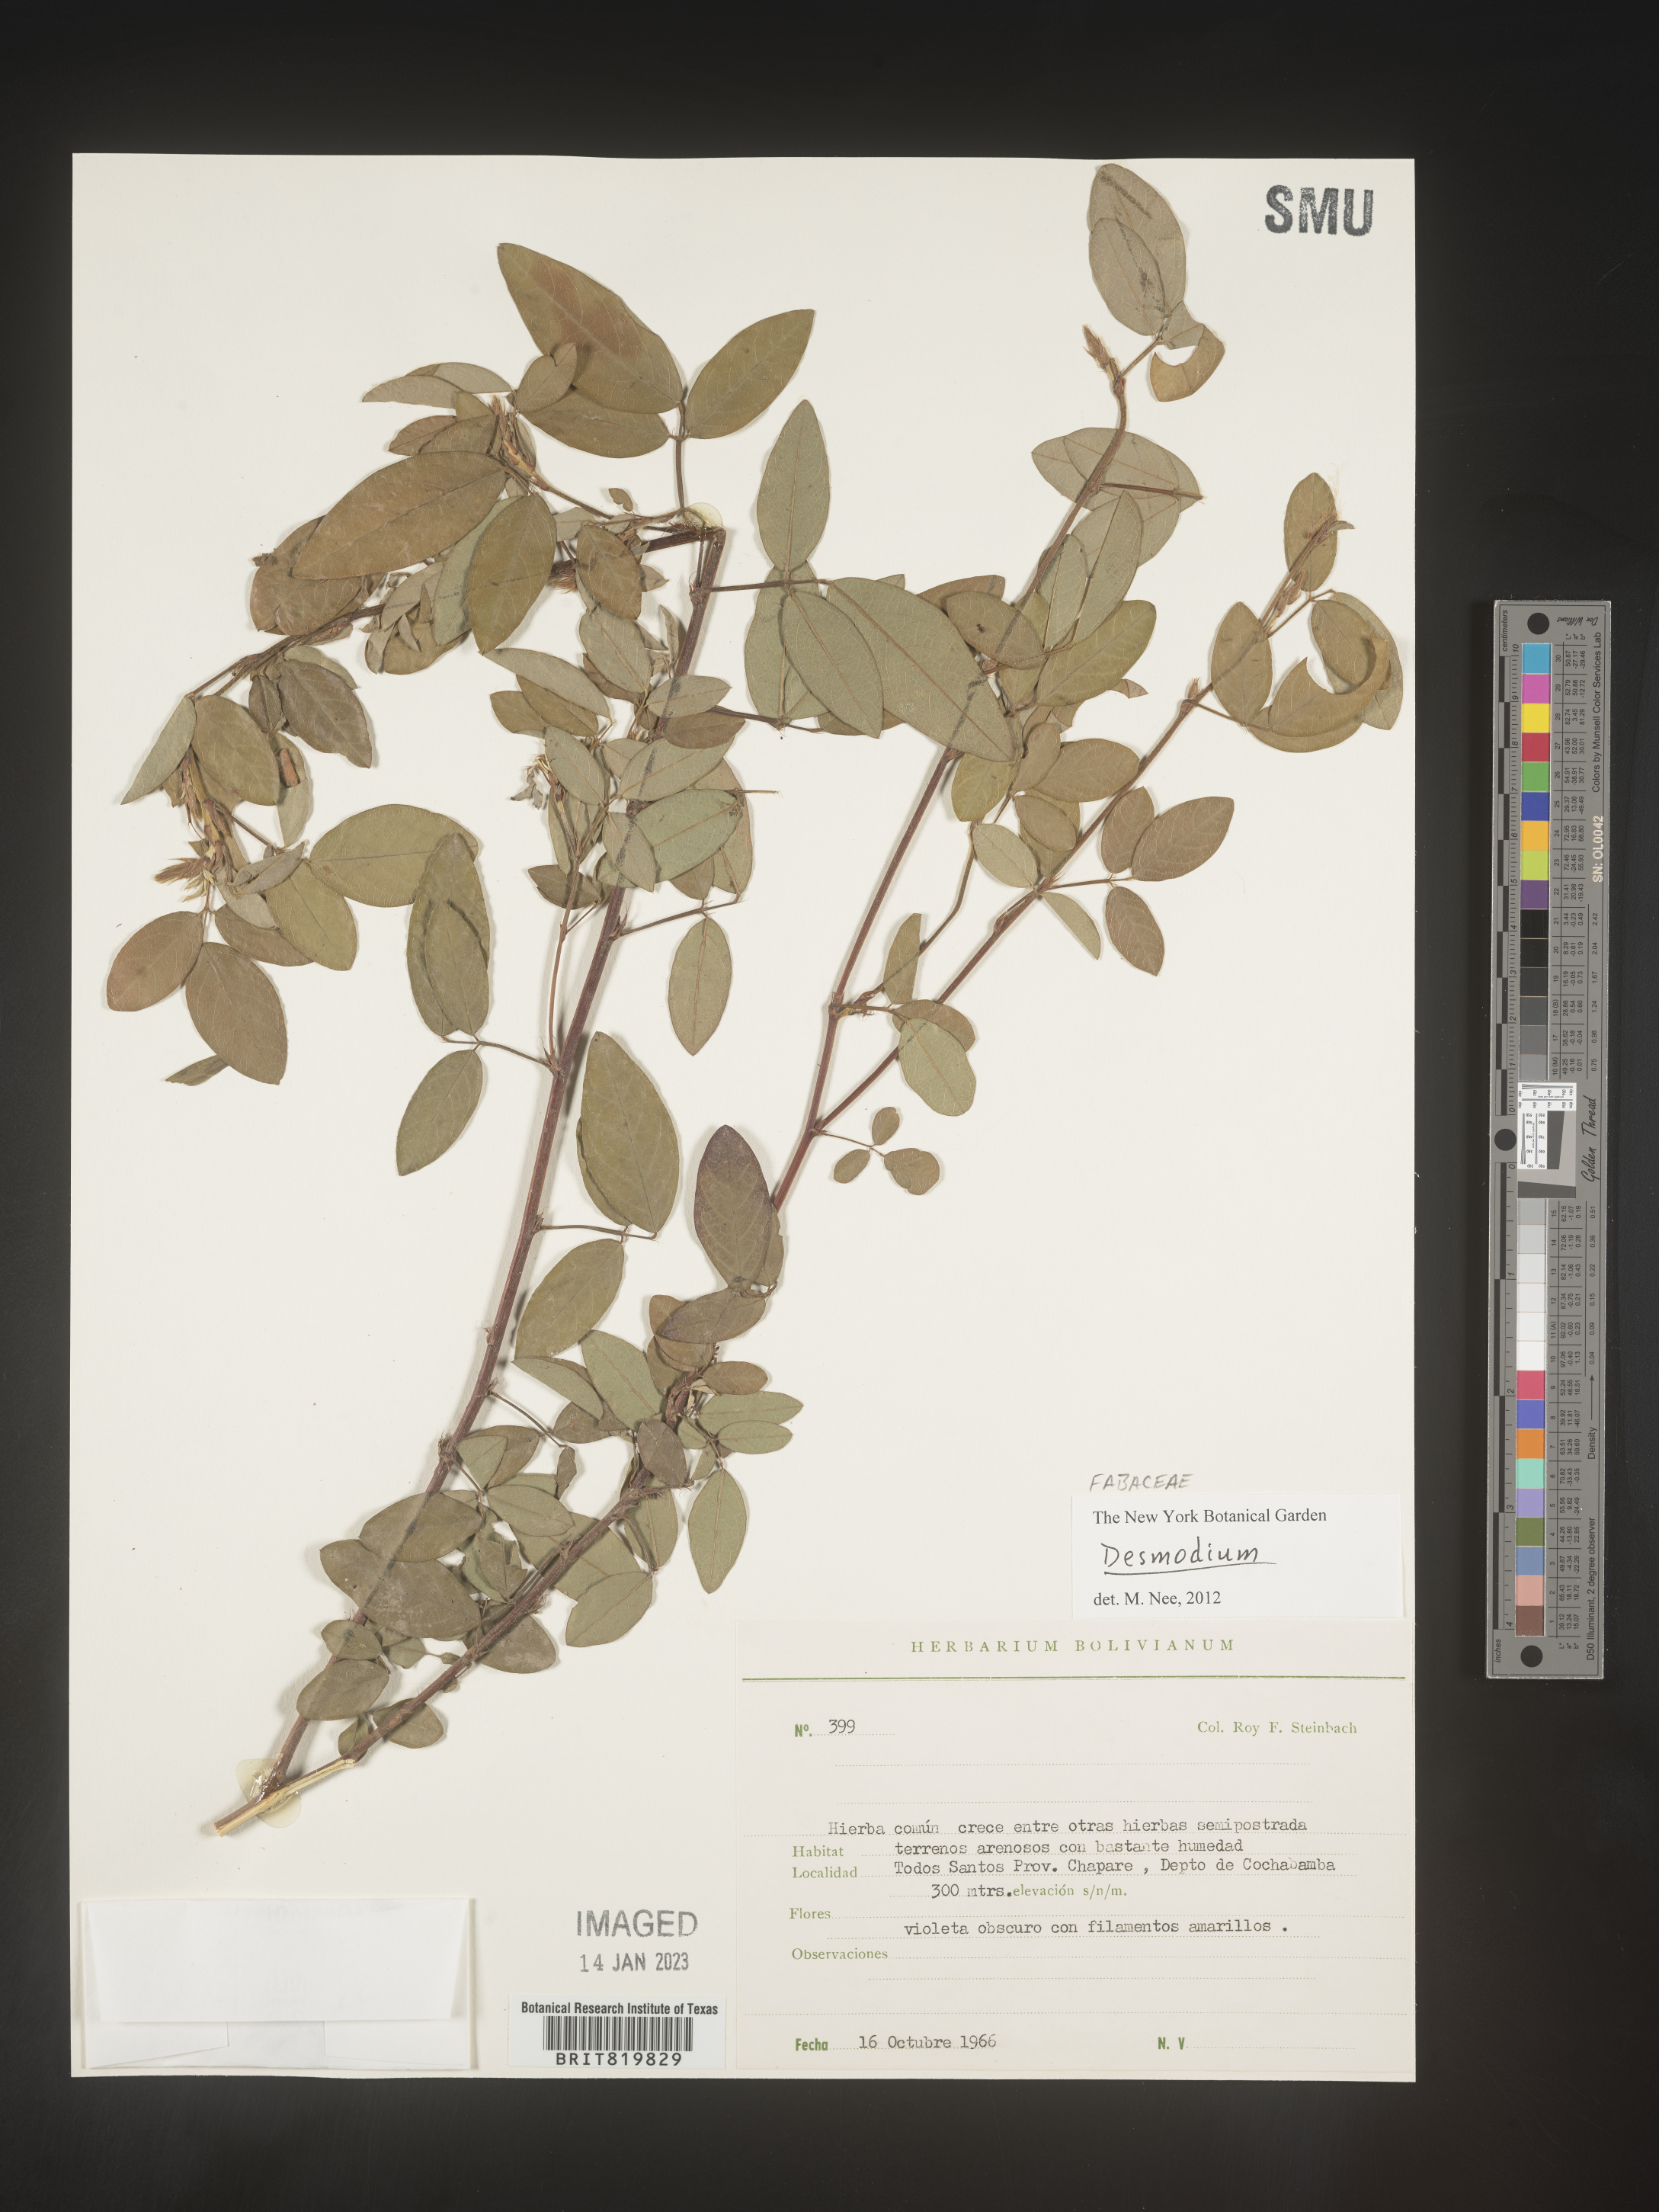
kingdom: Plantae
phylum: Tracheophyta
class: Magnoliopsida
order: Fabales
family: Fabaceae
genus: Desmodium
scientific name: Desmodium
